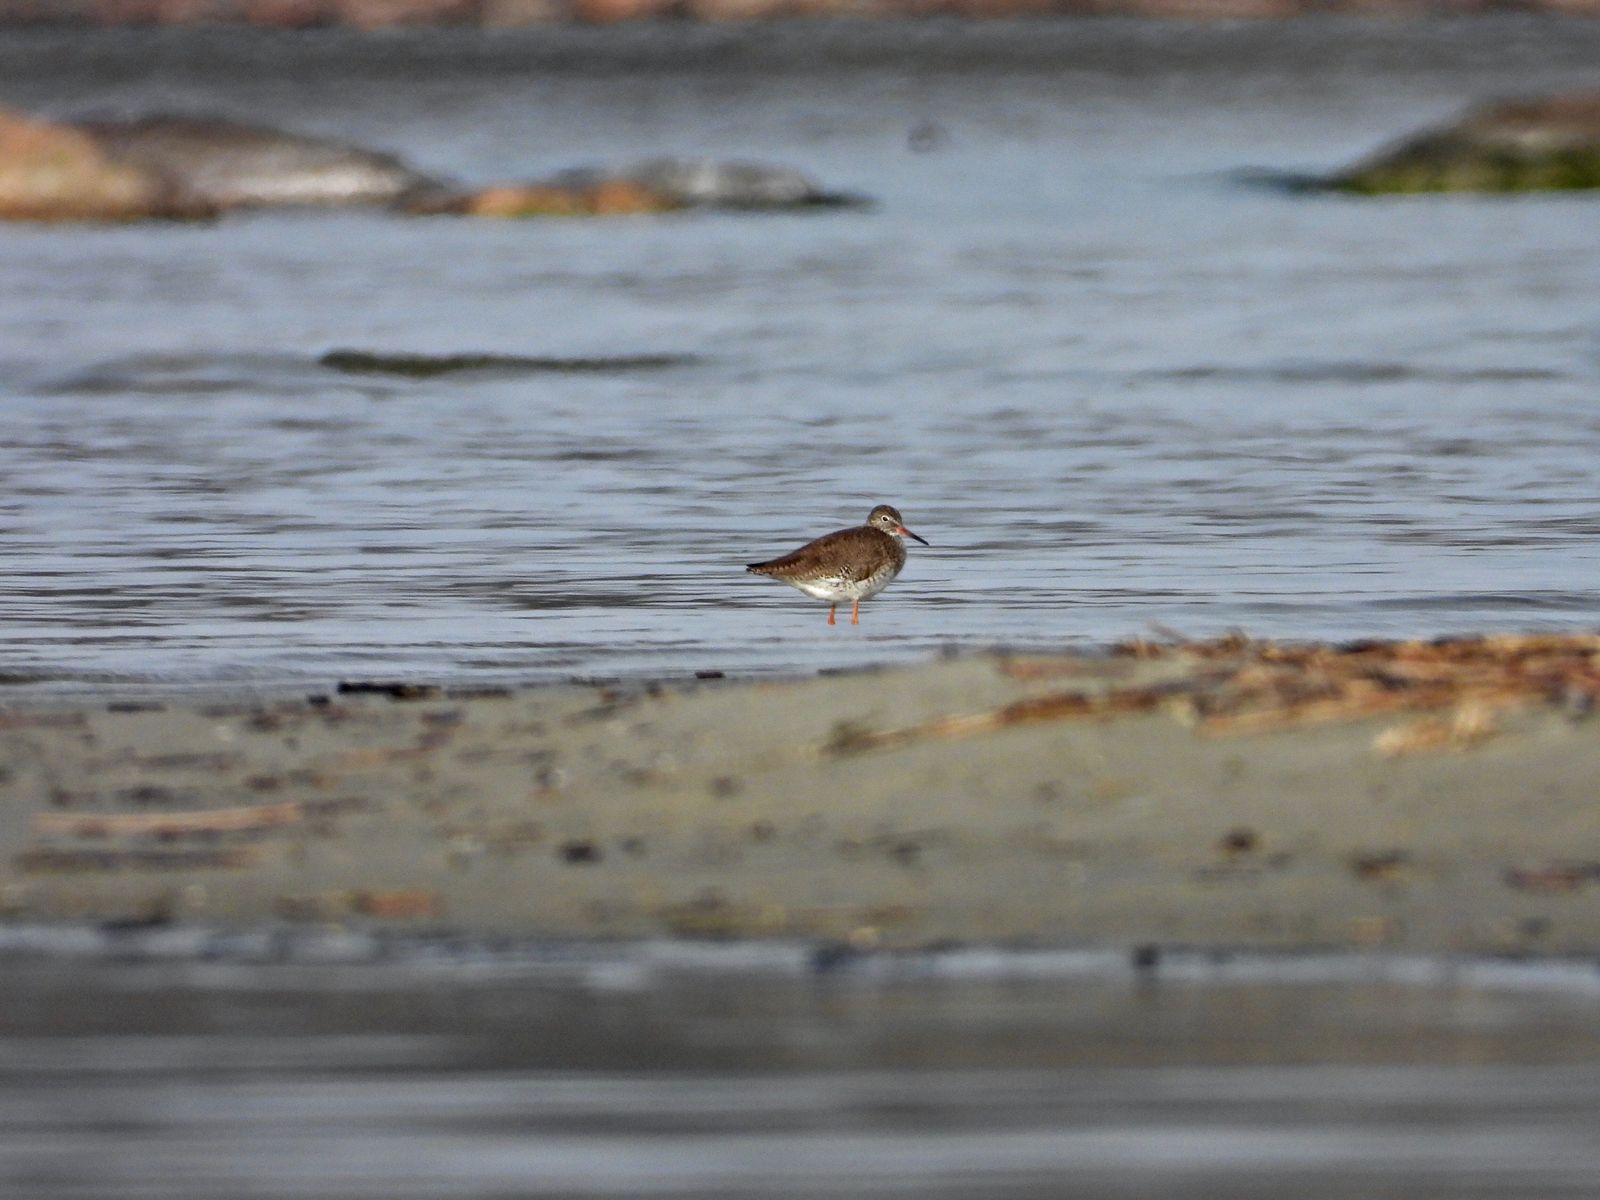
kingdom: Animalia
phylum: Chordata
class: Aves
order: Charadriiformes
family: Scolopacidae
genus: Tringa
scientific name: Tringa totanus
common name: Common redshank
